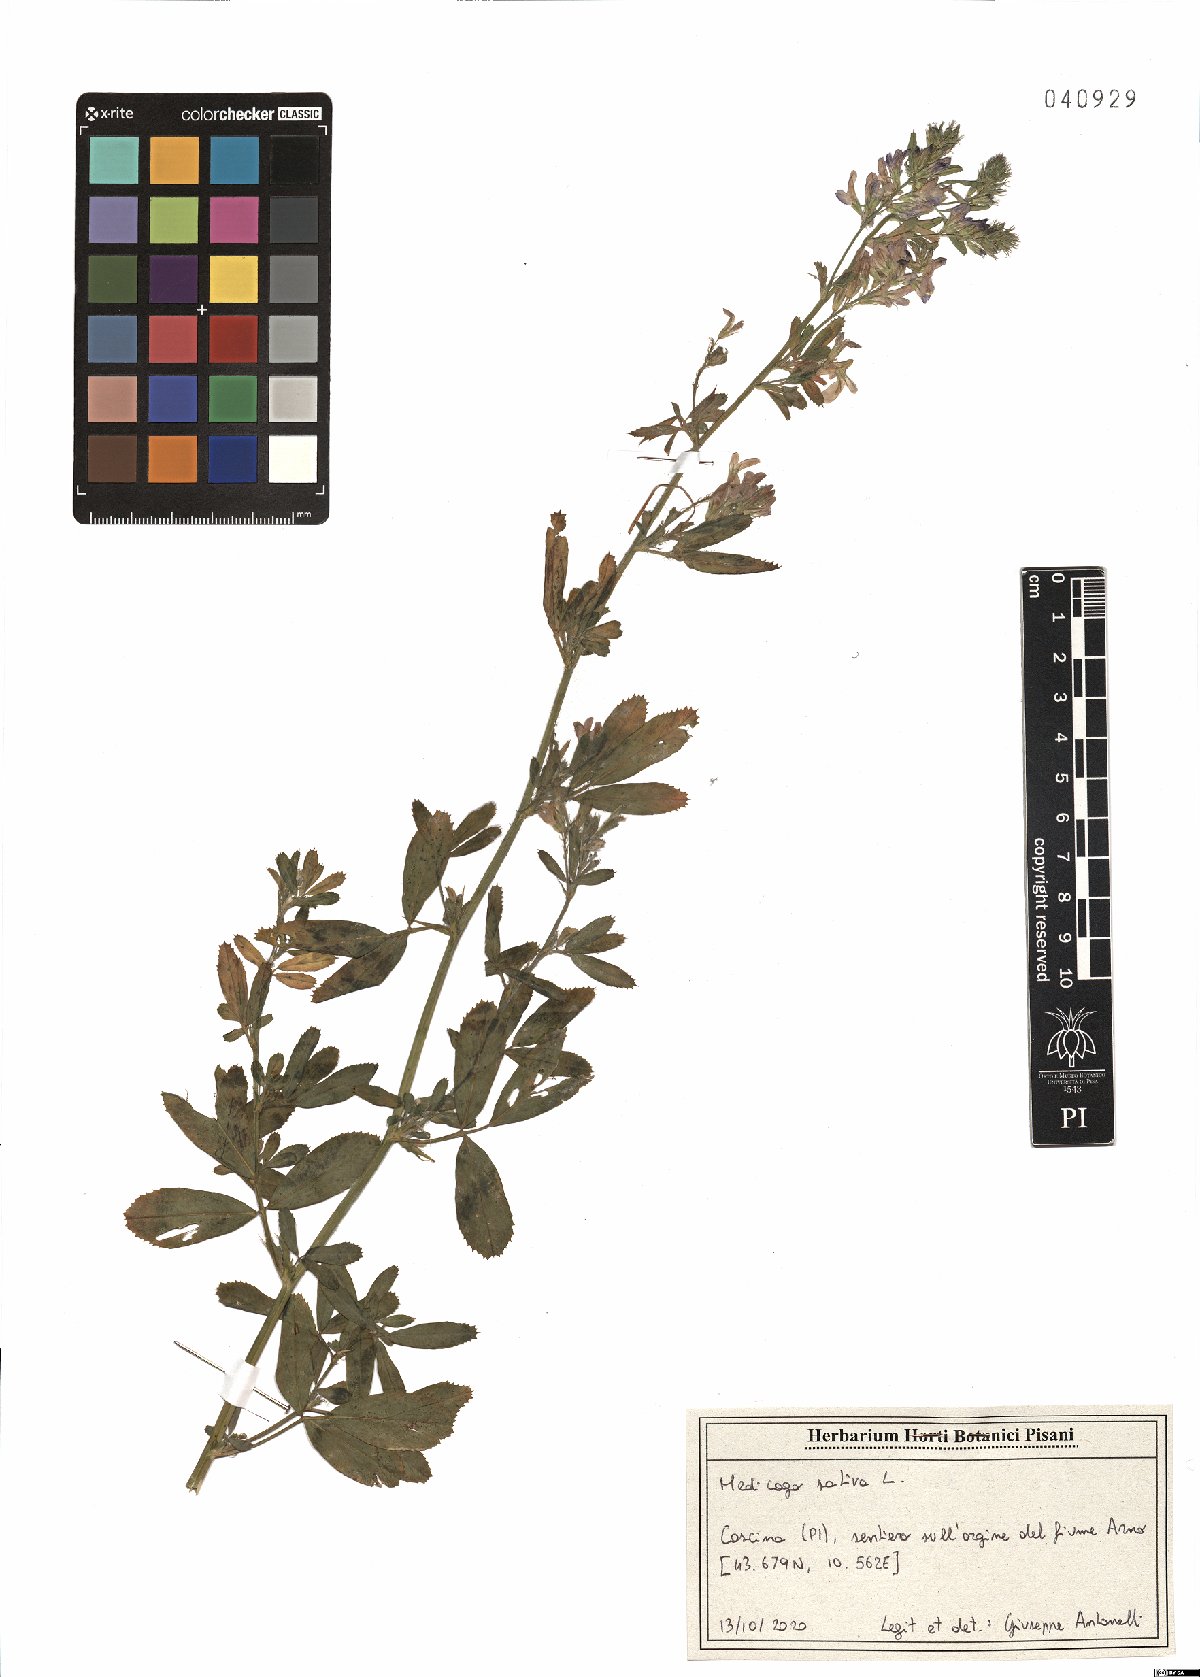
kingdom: Plantae
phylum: Tracheophyta
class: Magnoliopsida
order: Fabales
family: Fabaceae
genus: Medicago
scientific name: Medicago sativa
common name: Alfalfa
